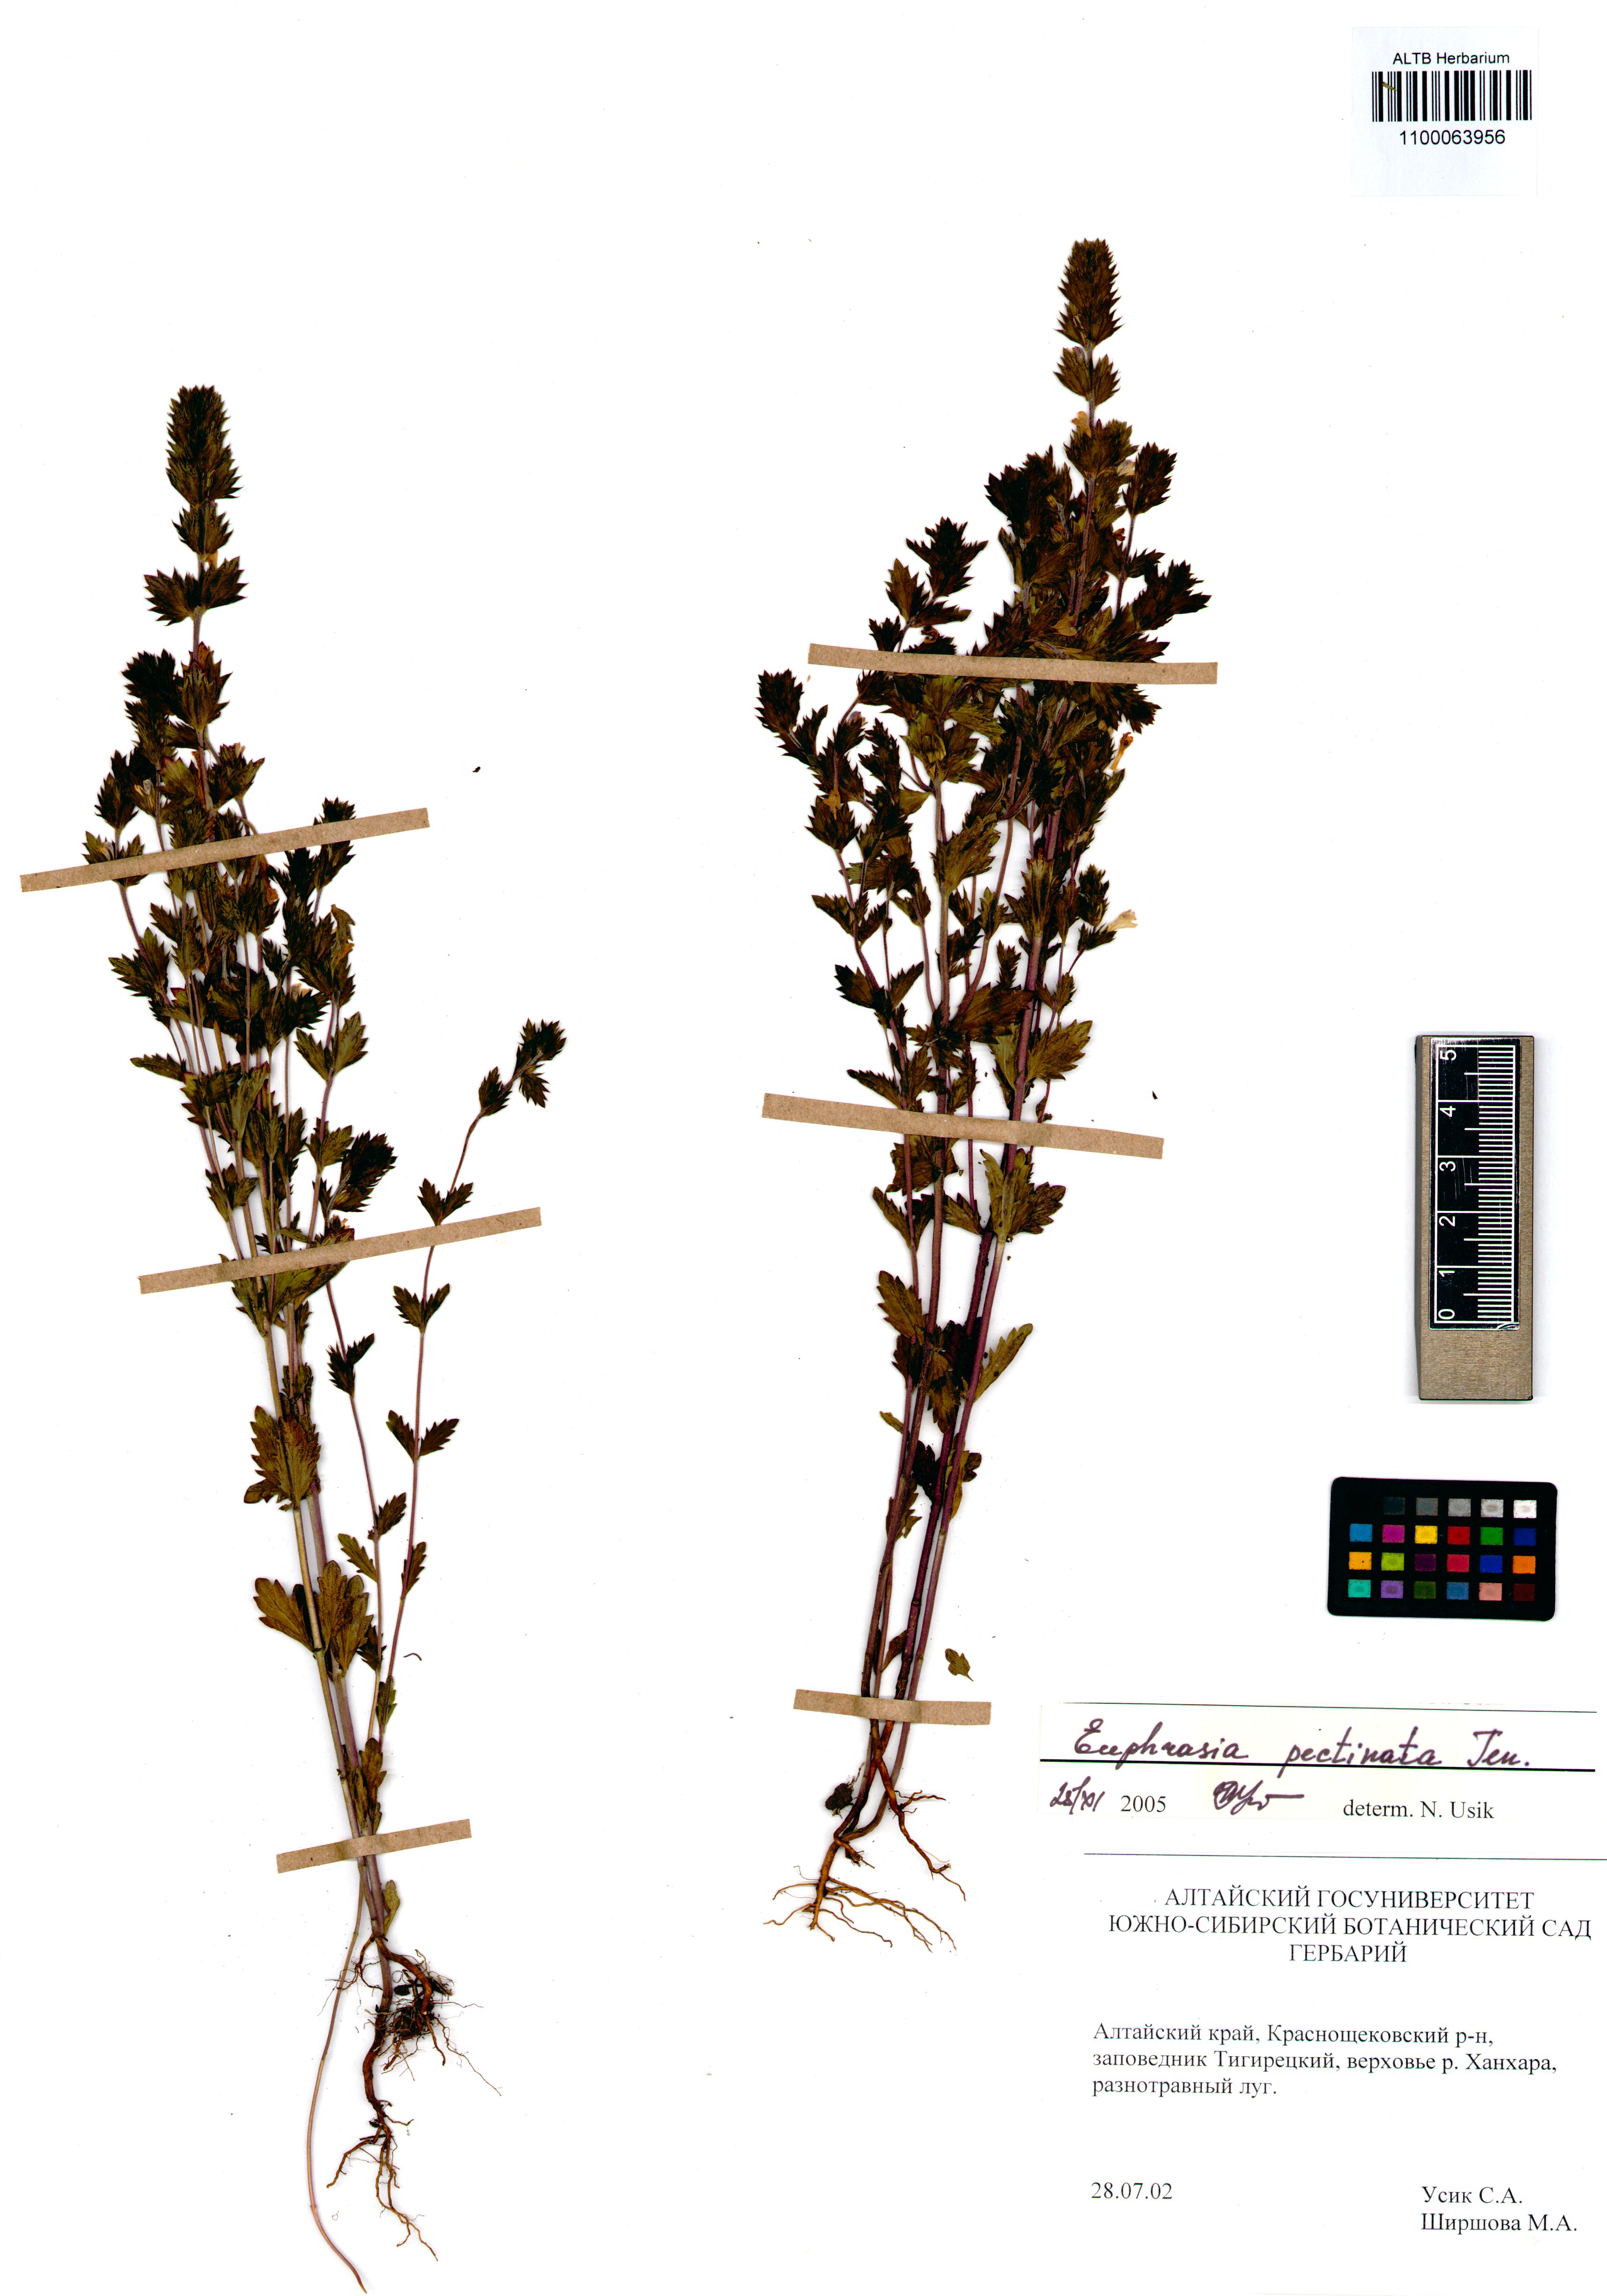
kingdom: Plantae
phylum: Tracheophyta
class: Magnoliopsida
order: Lamiales
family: Orobanchaceae
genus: Euphrasia
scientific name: Euphrasia pectinata
